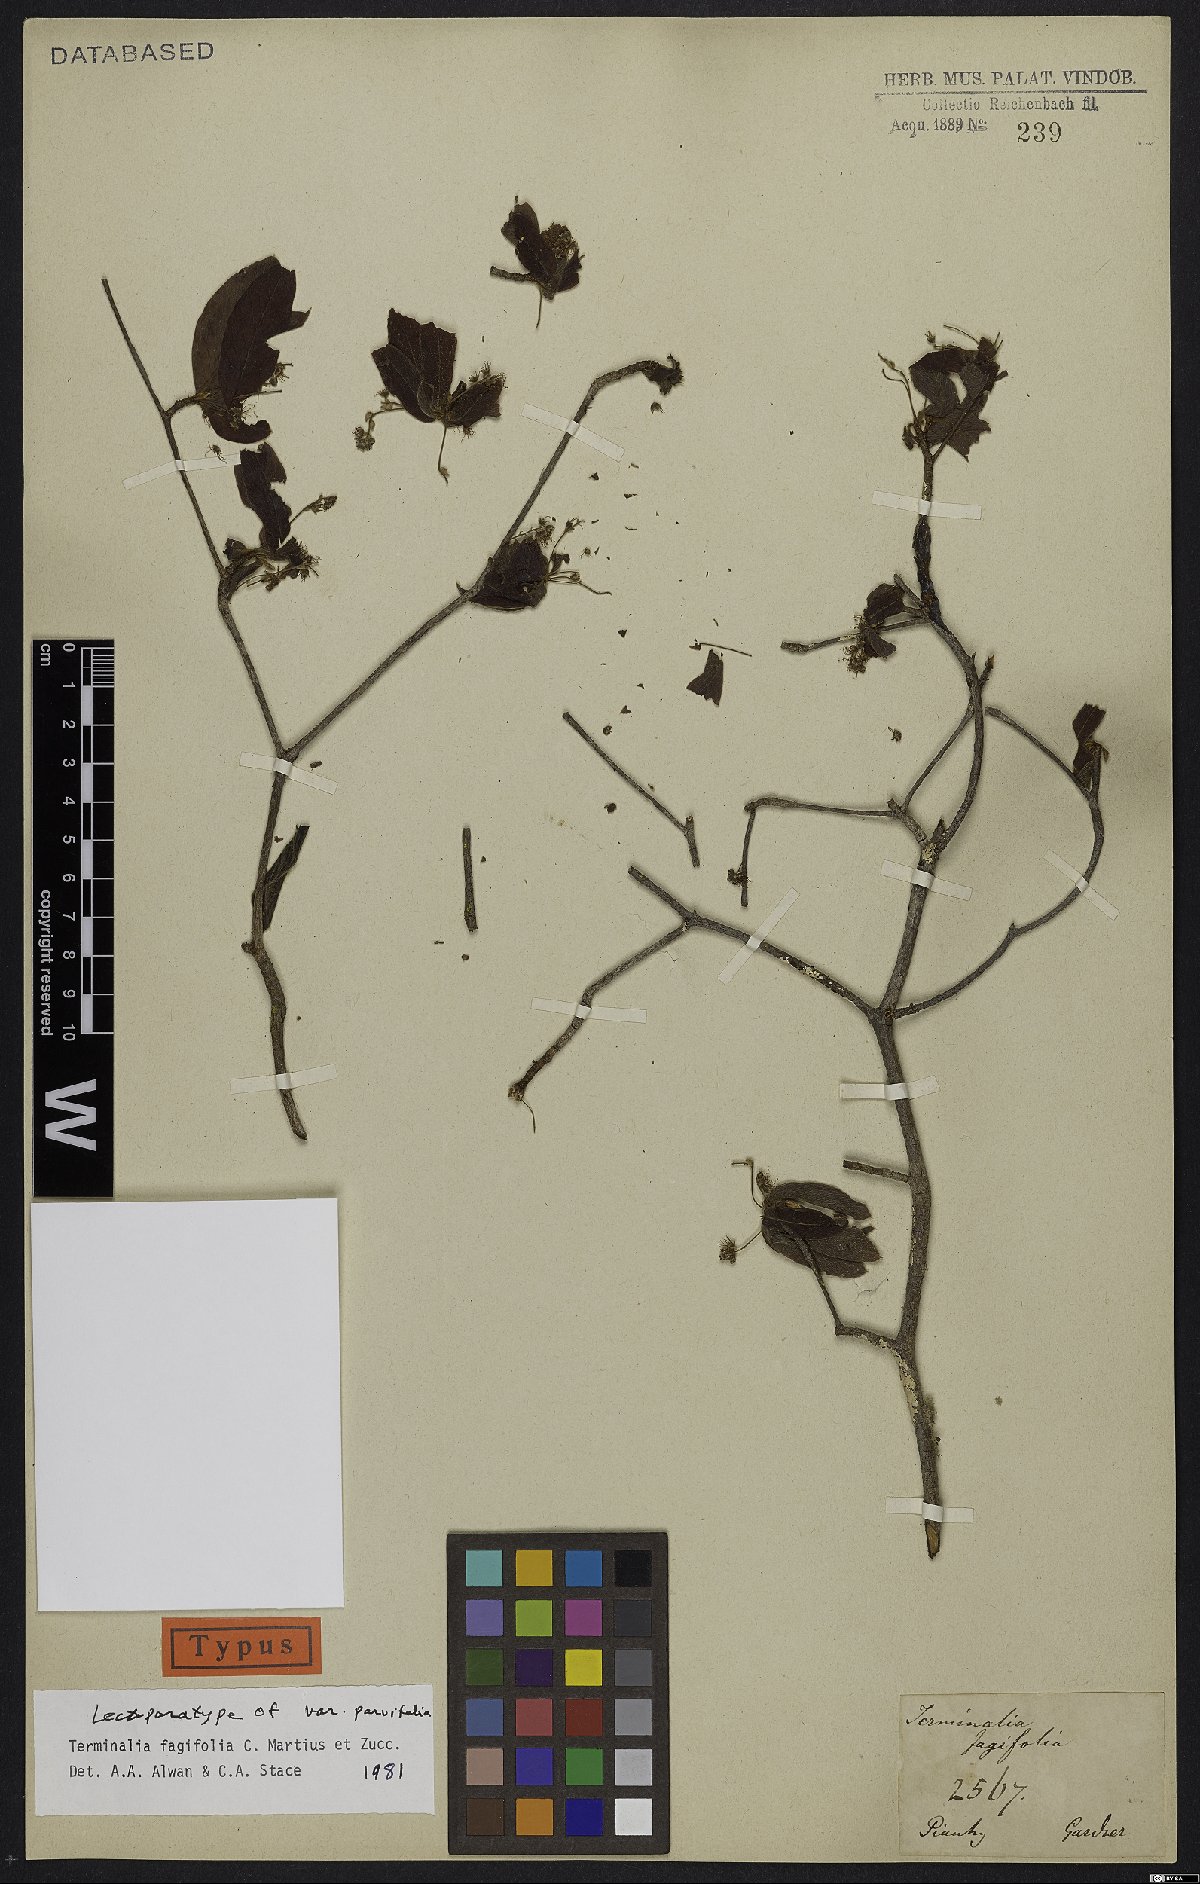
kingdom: Plantae
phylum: Tracheophyta
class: Magnoliopsida
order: Myrtales
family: Combretaceae
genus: Terminalia
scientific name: Terminalia fagifolia
